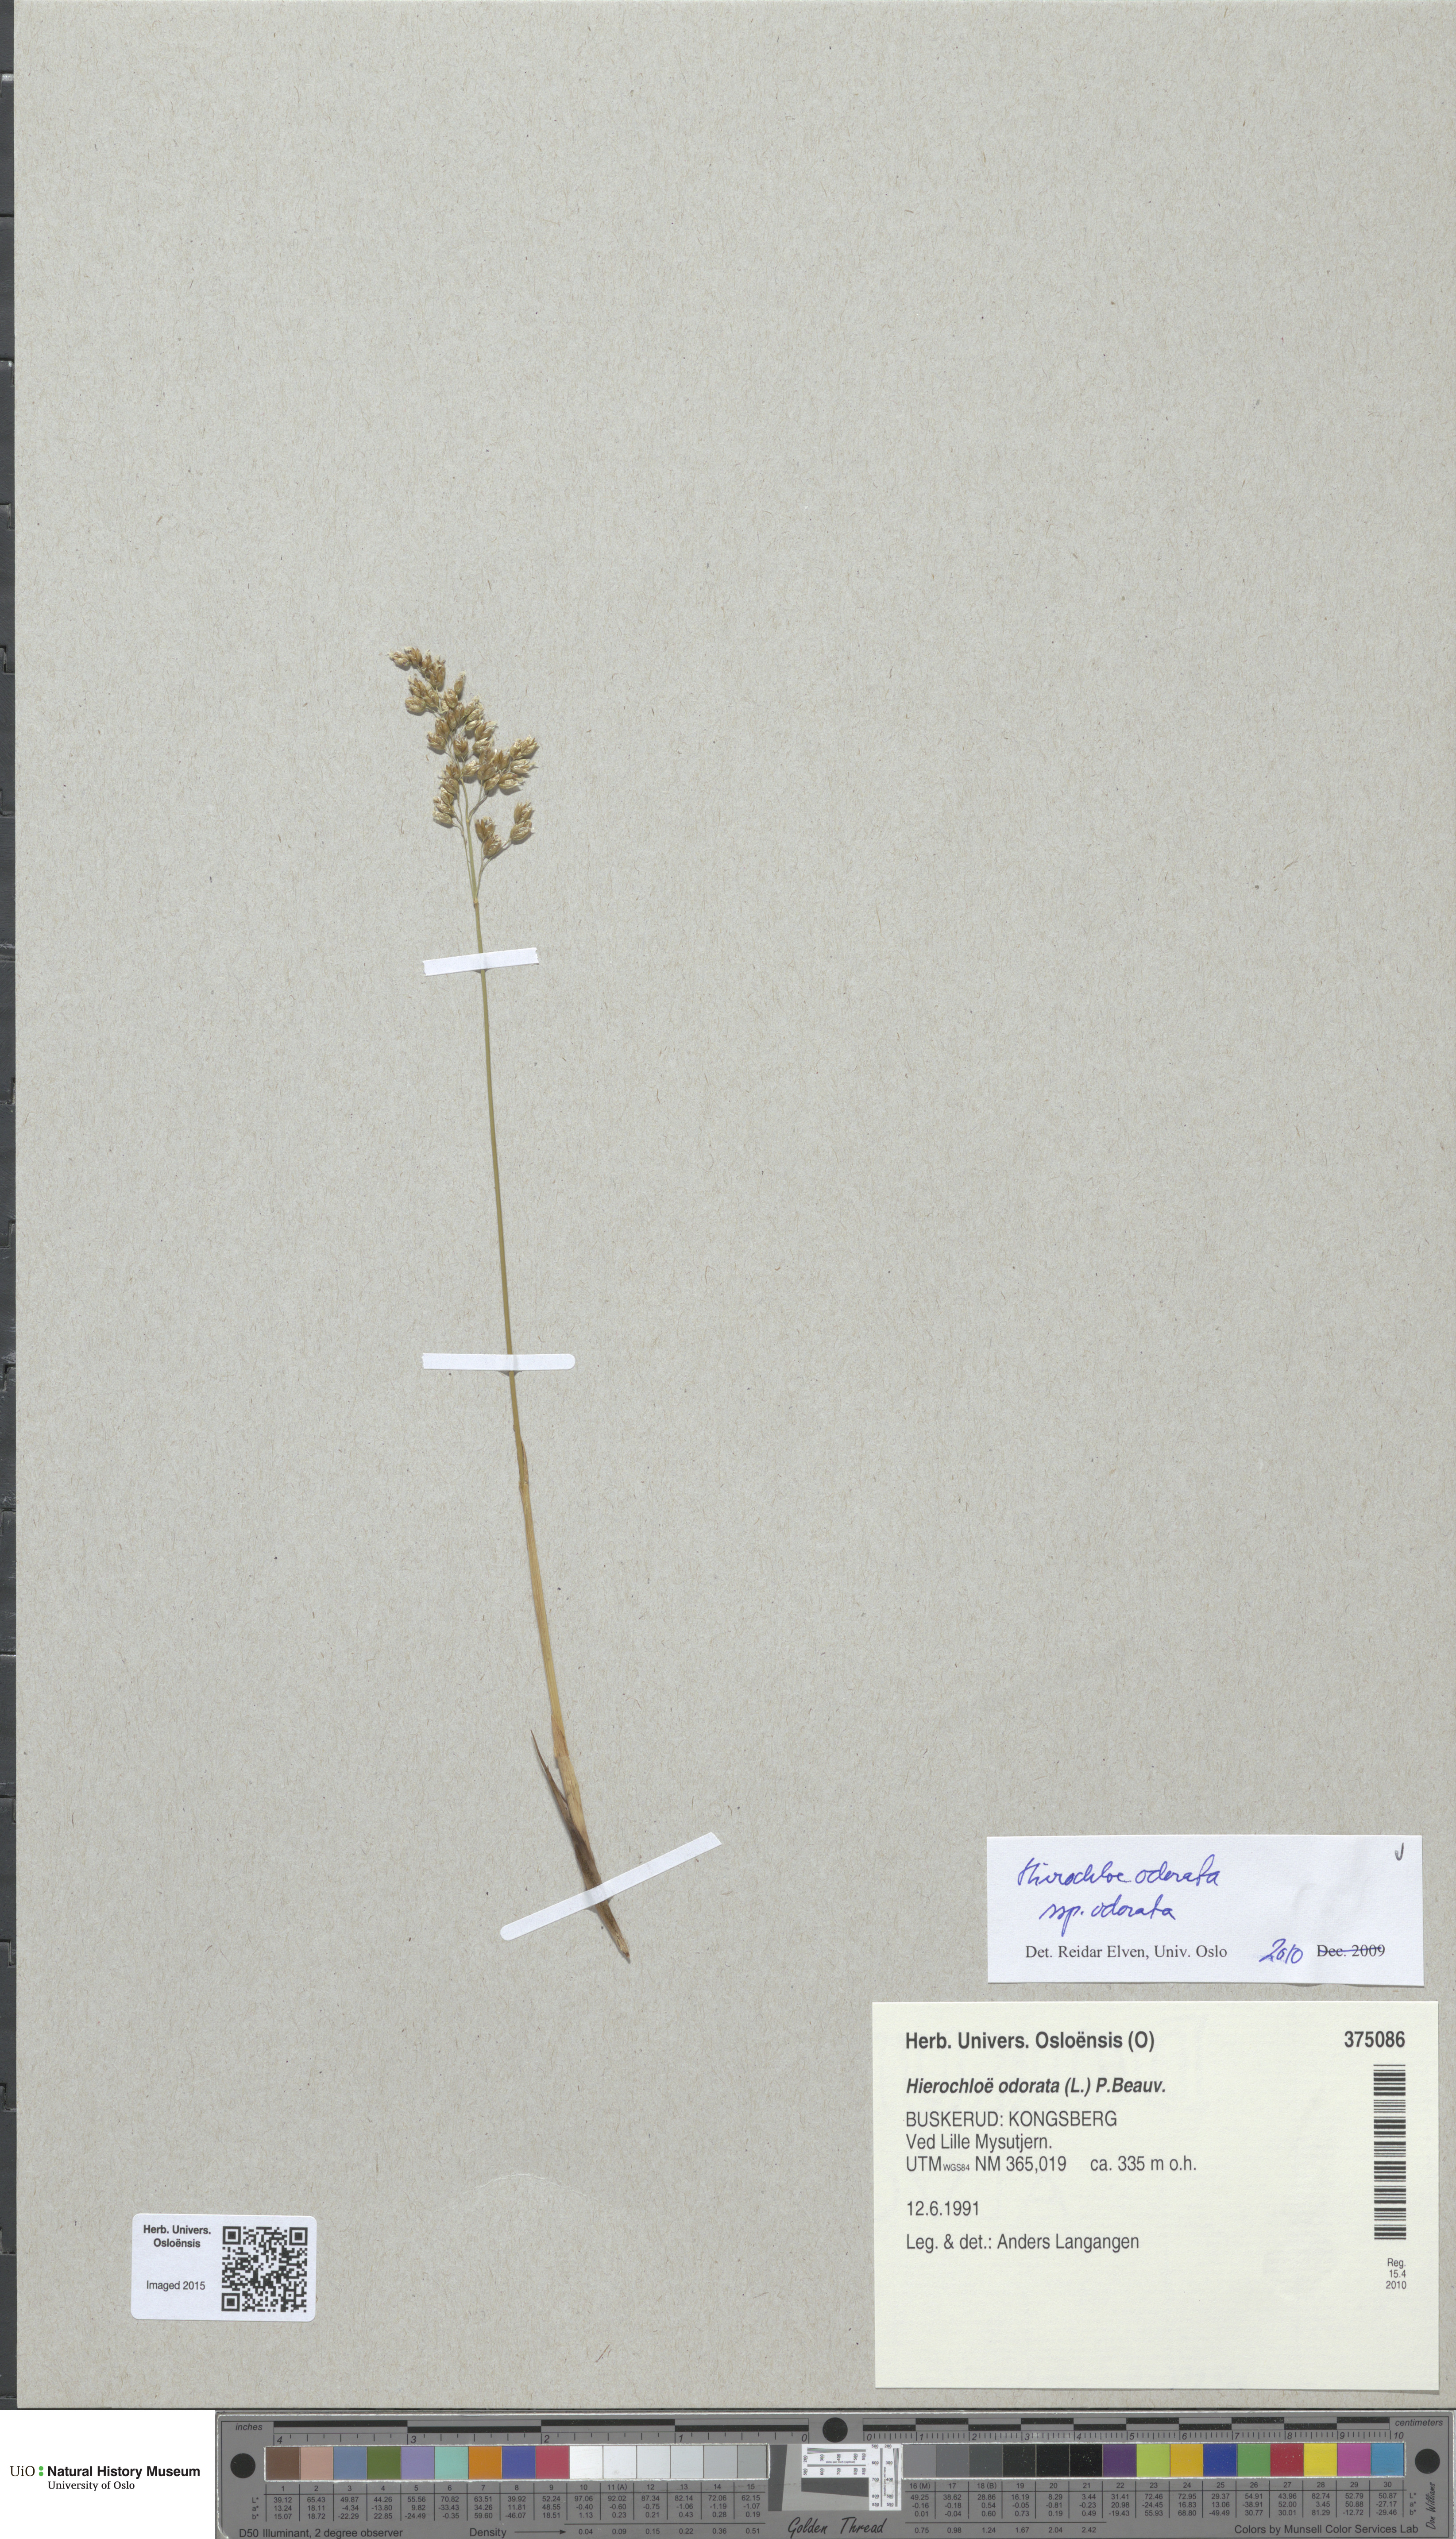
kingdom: Plantae
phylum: Tracheophyta
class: Liliopsida
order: Poales
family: Poaceae
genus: Anthoxanthum
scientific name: Anthoxanthum nitens
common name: Holy grass
